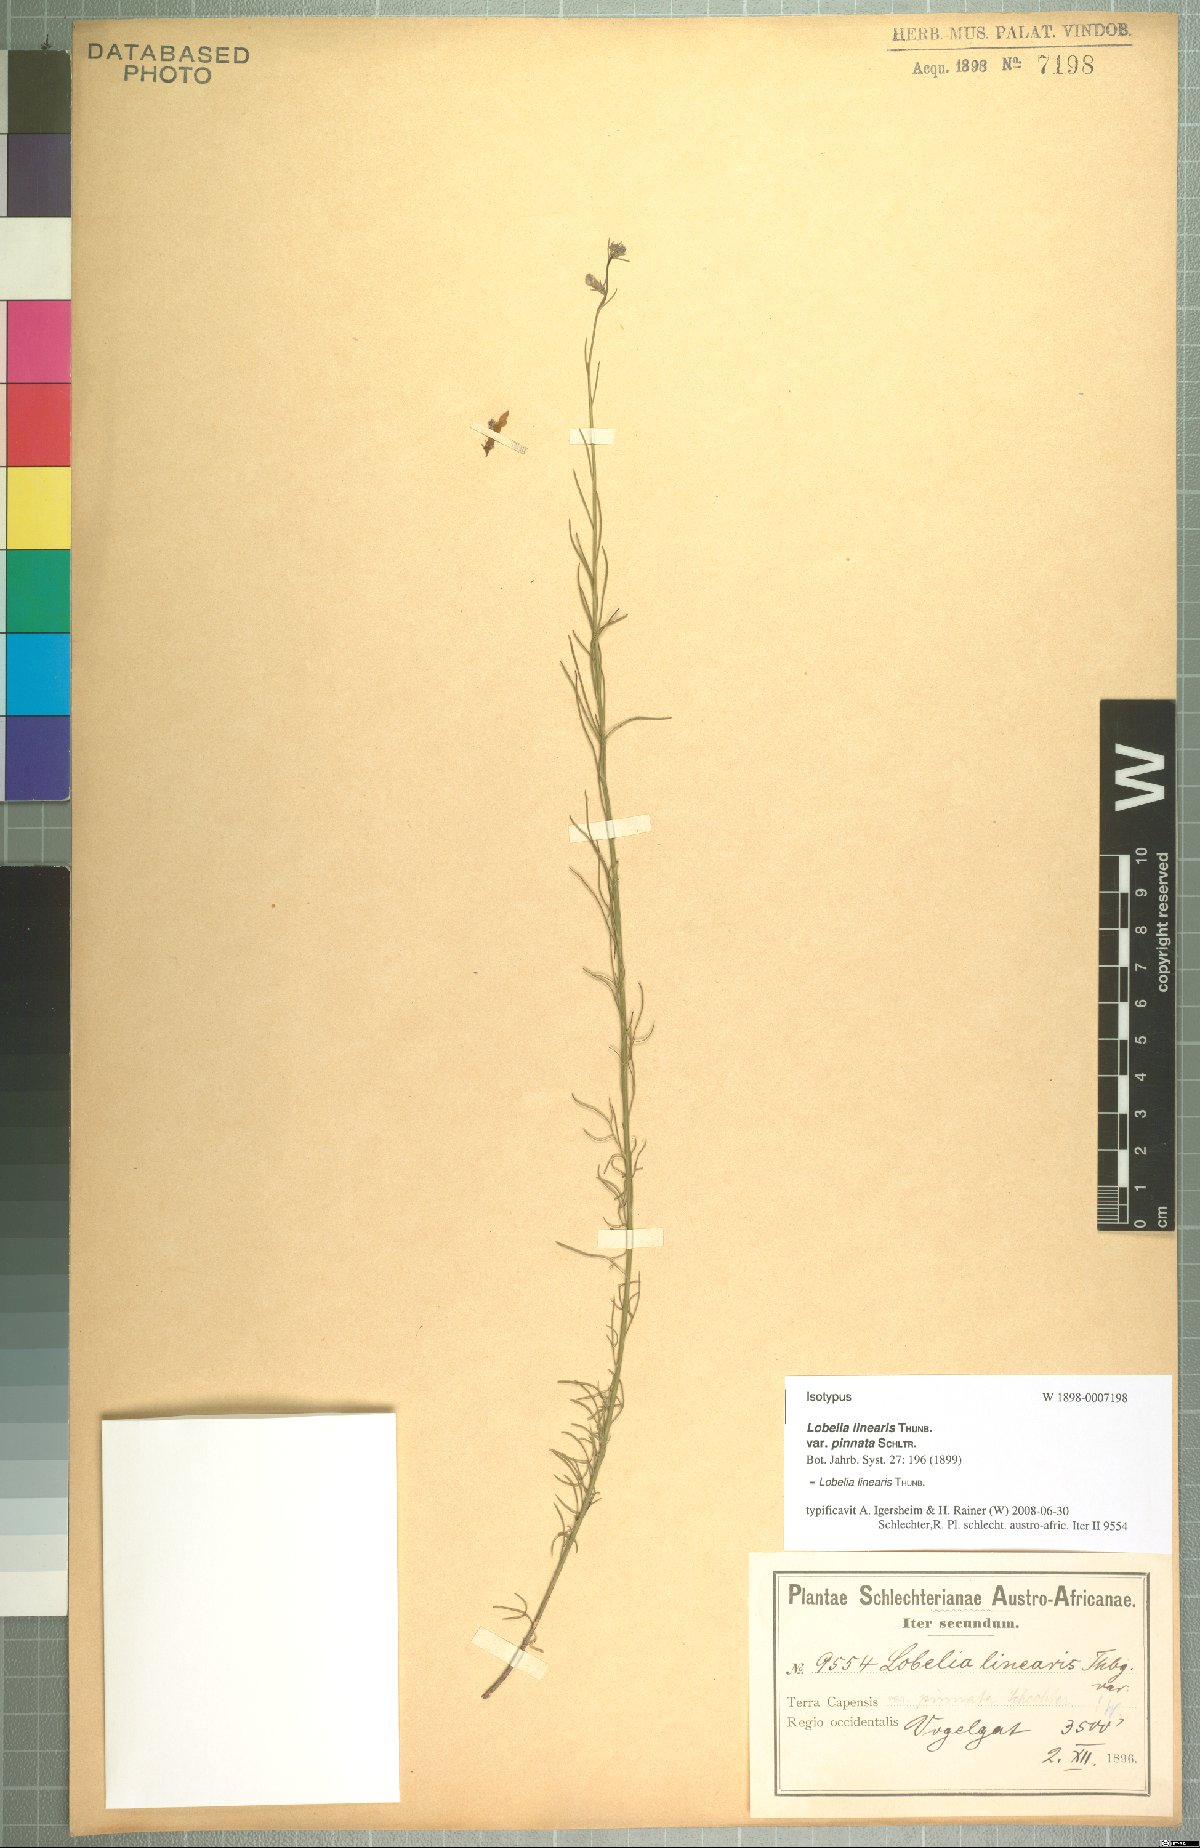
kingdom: Plantae
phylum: Tracheophyta
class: Magnoliopsida
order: Asterales
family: Campanulaceae
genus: Lobelia
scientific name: Lobelia linearis
